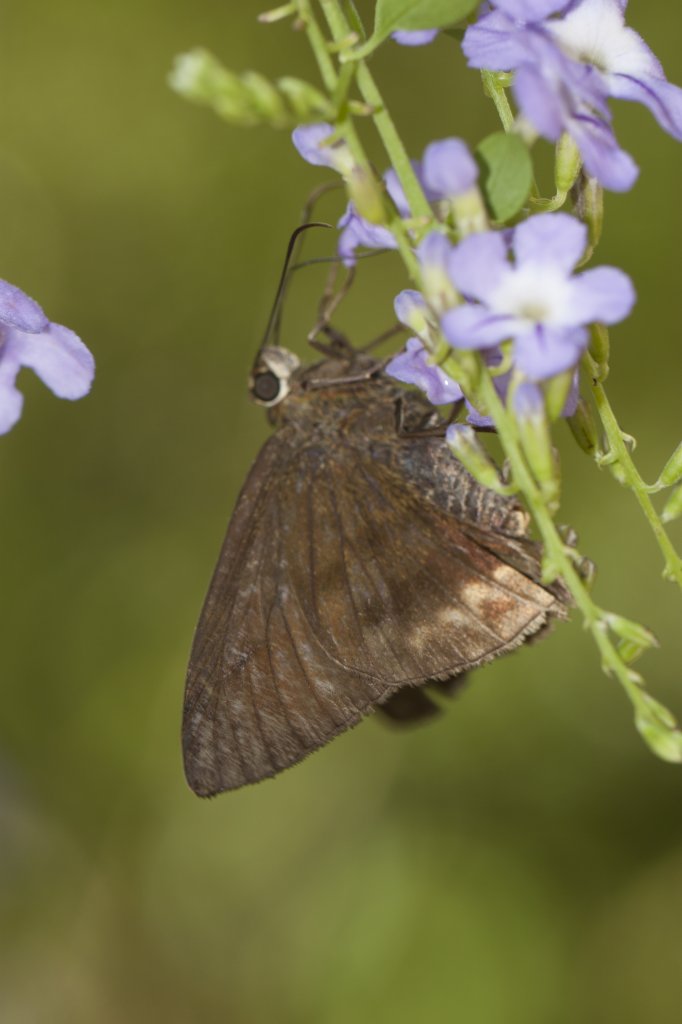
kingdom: Animalia
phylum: Arthropoda
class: Insecta
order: Lepidoptera
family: Hesperiidae
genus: Nyctelius
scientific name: Nyctelius nyctelius
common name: Violet-banded Skipper
